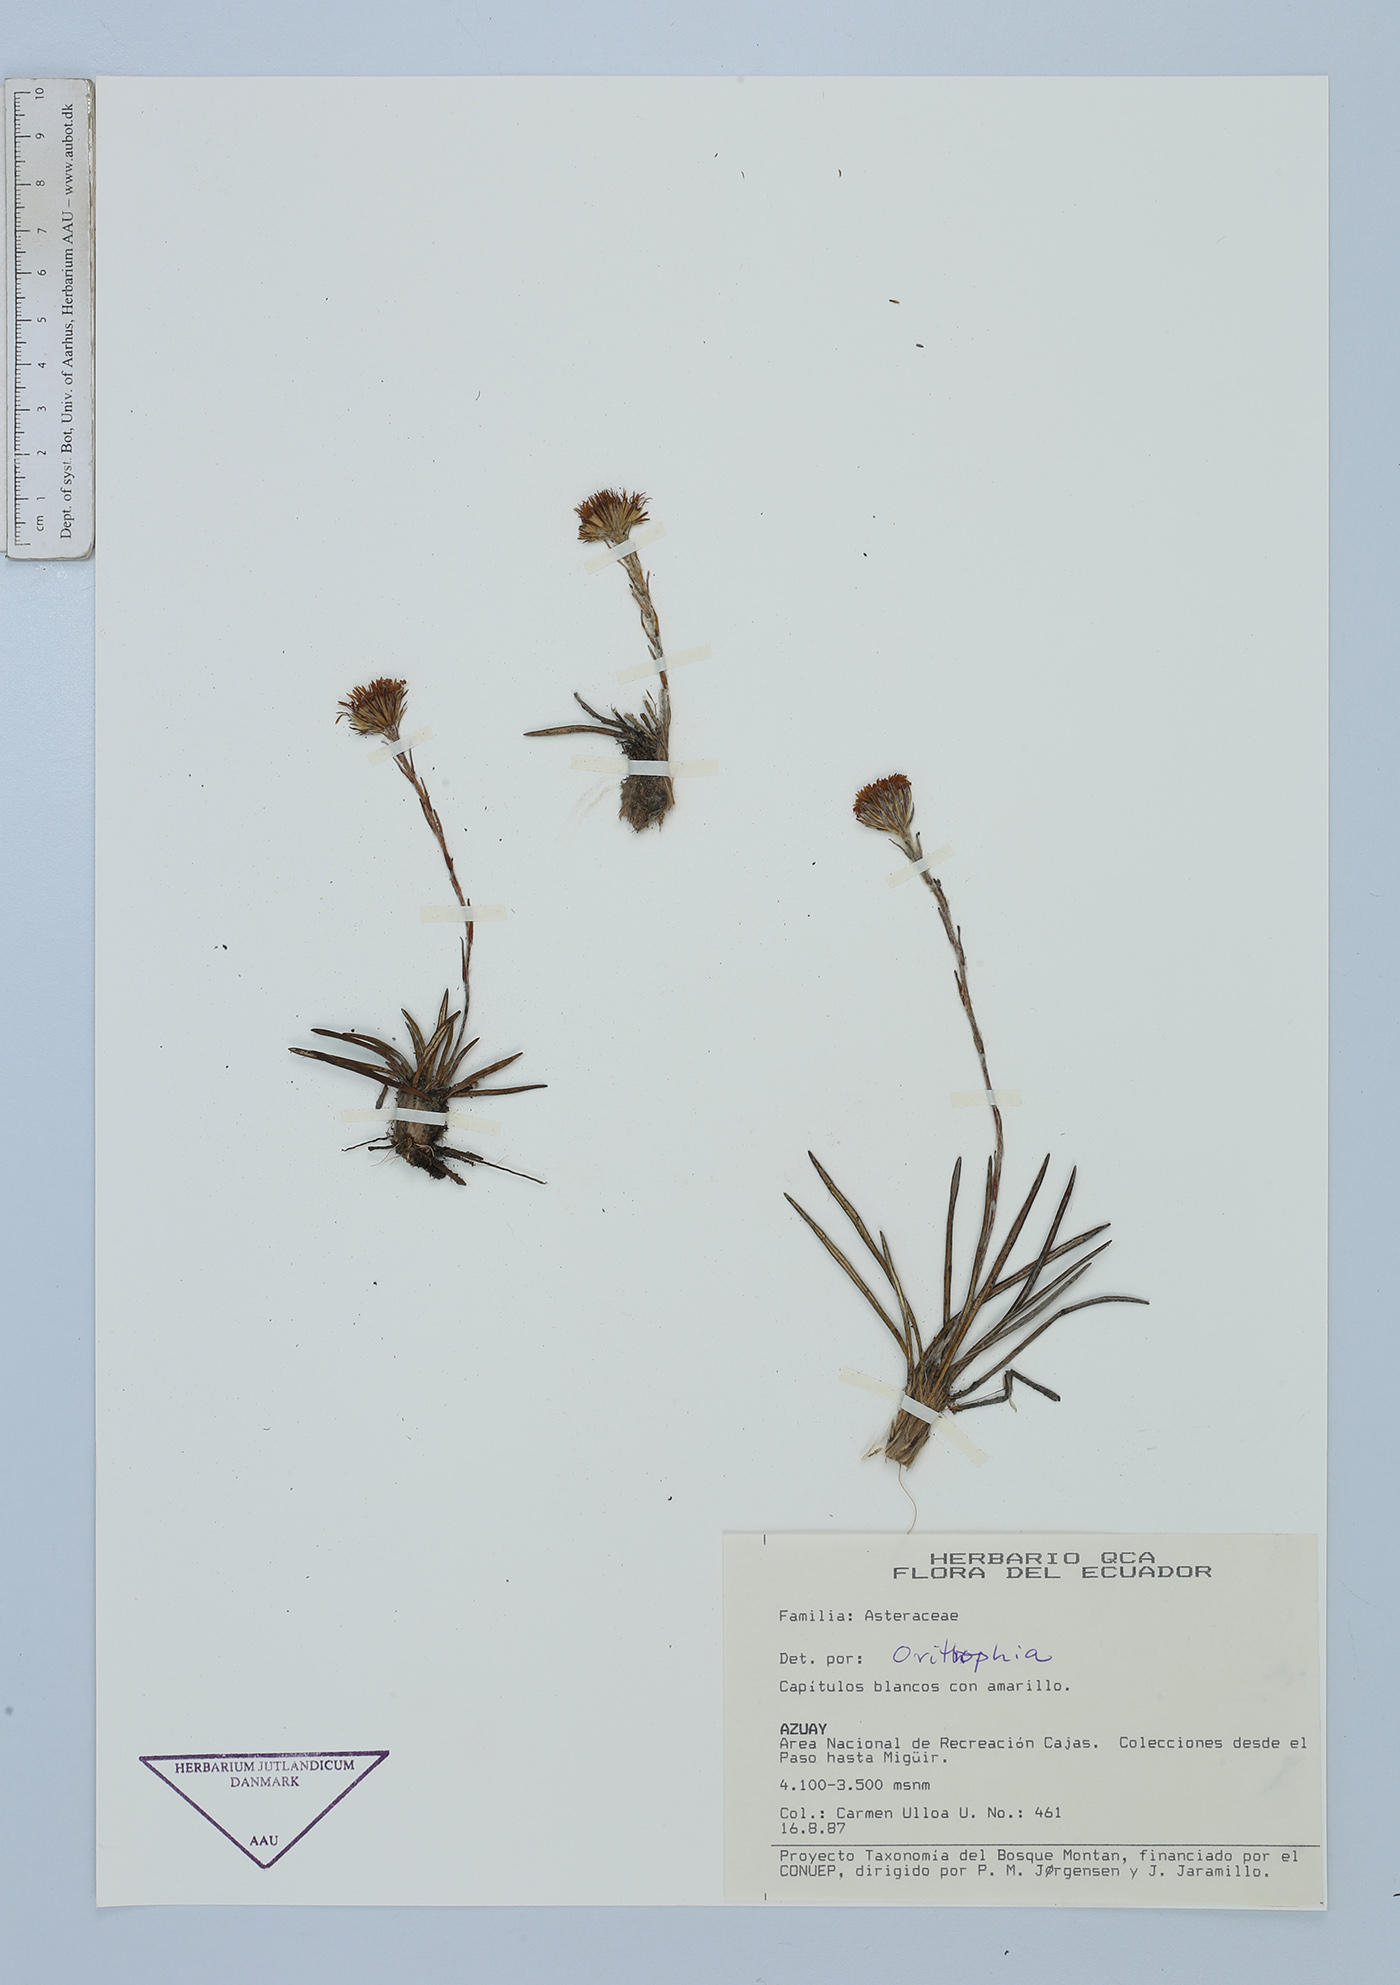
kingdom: Plantae
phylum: Tracheophyta
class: Magnoliopsida
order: Asterales
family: Asteraceae
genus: Oritrophium
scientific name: Oritrophium
